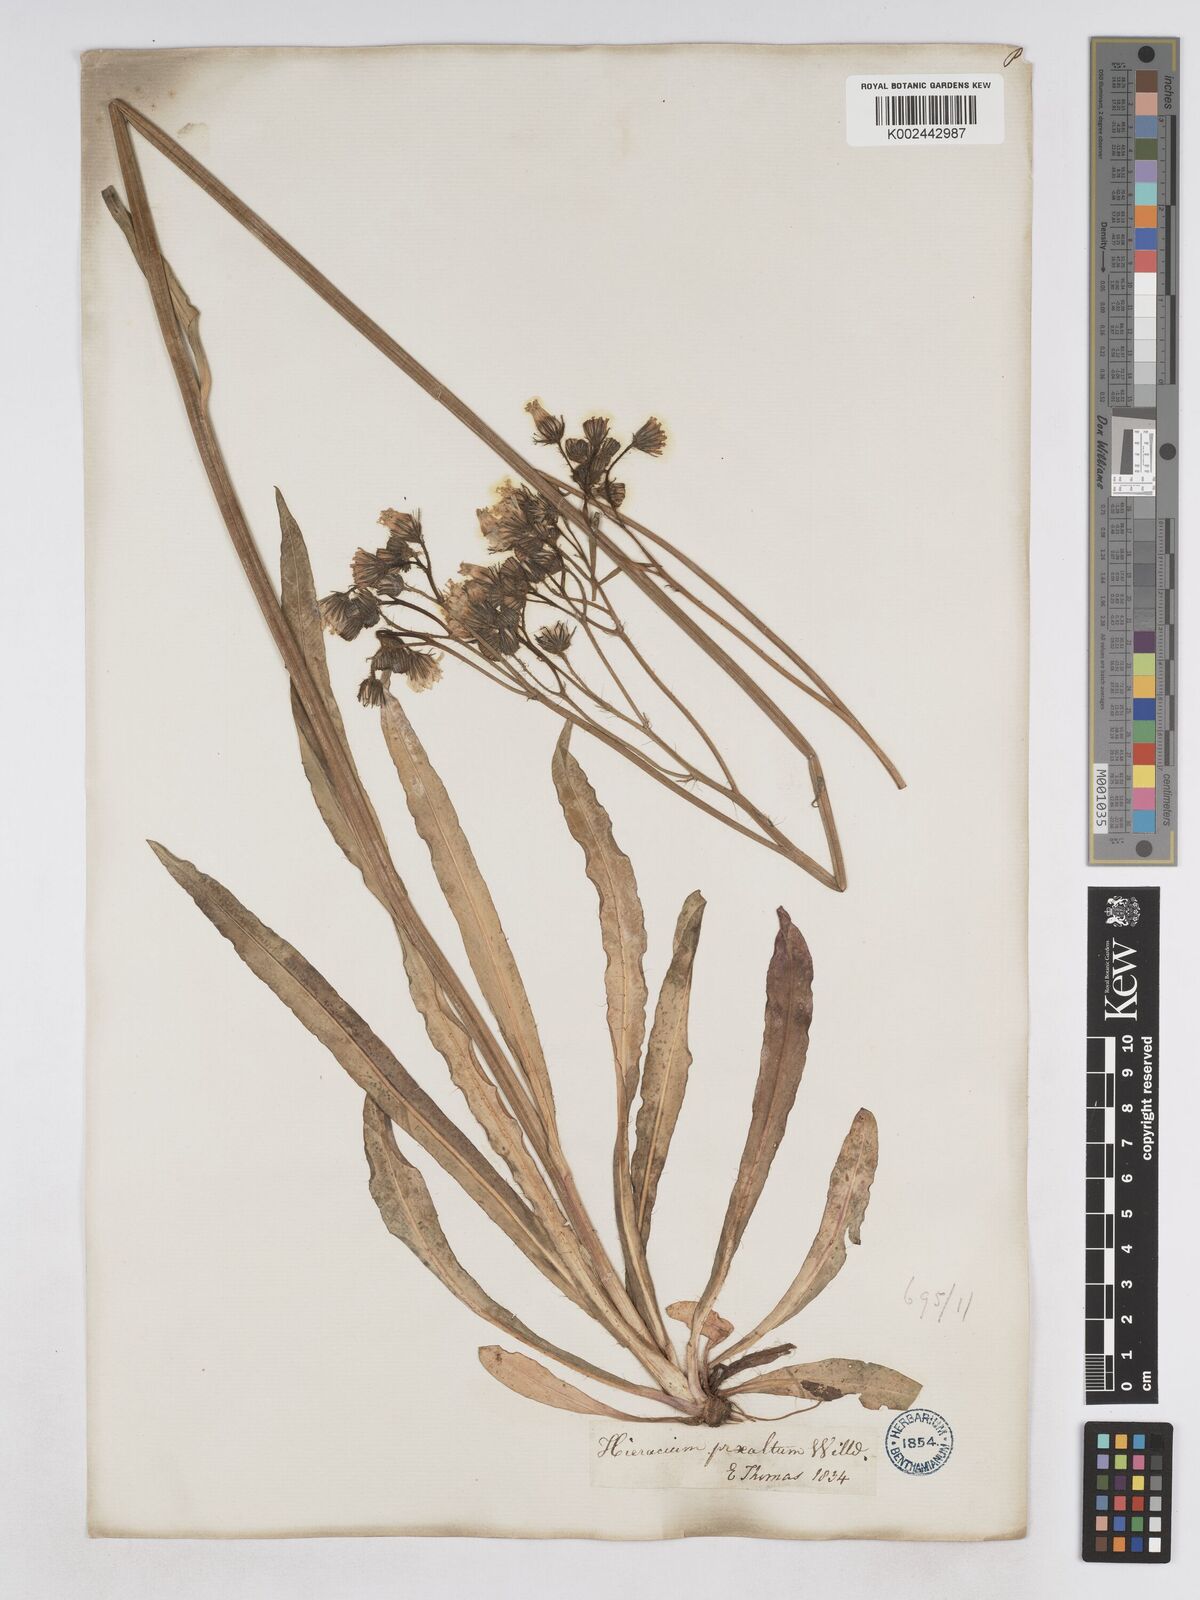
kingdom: Plantae
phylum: Tracheophyta
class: Magnoliopsida
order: Asterales
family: Asteraceae
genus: Pilosella
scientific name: Pilosella piloselloides
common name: Glaucous king-devil
